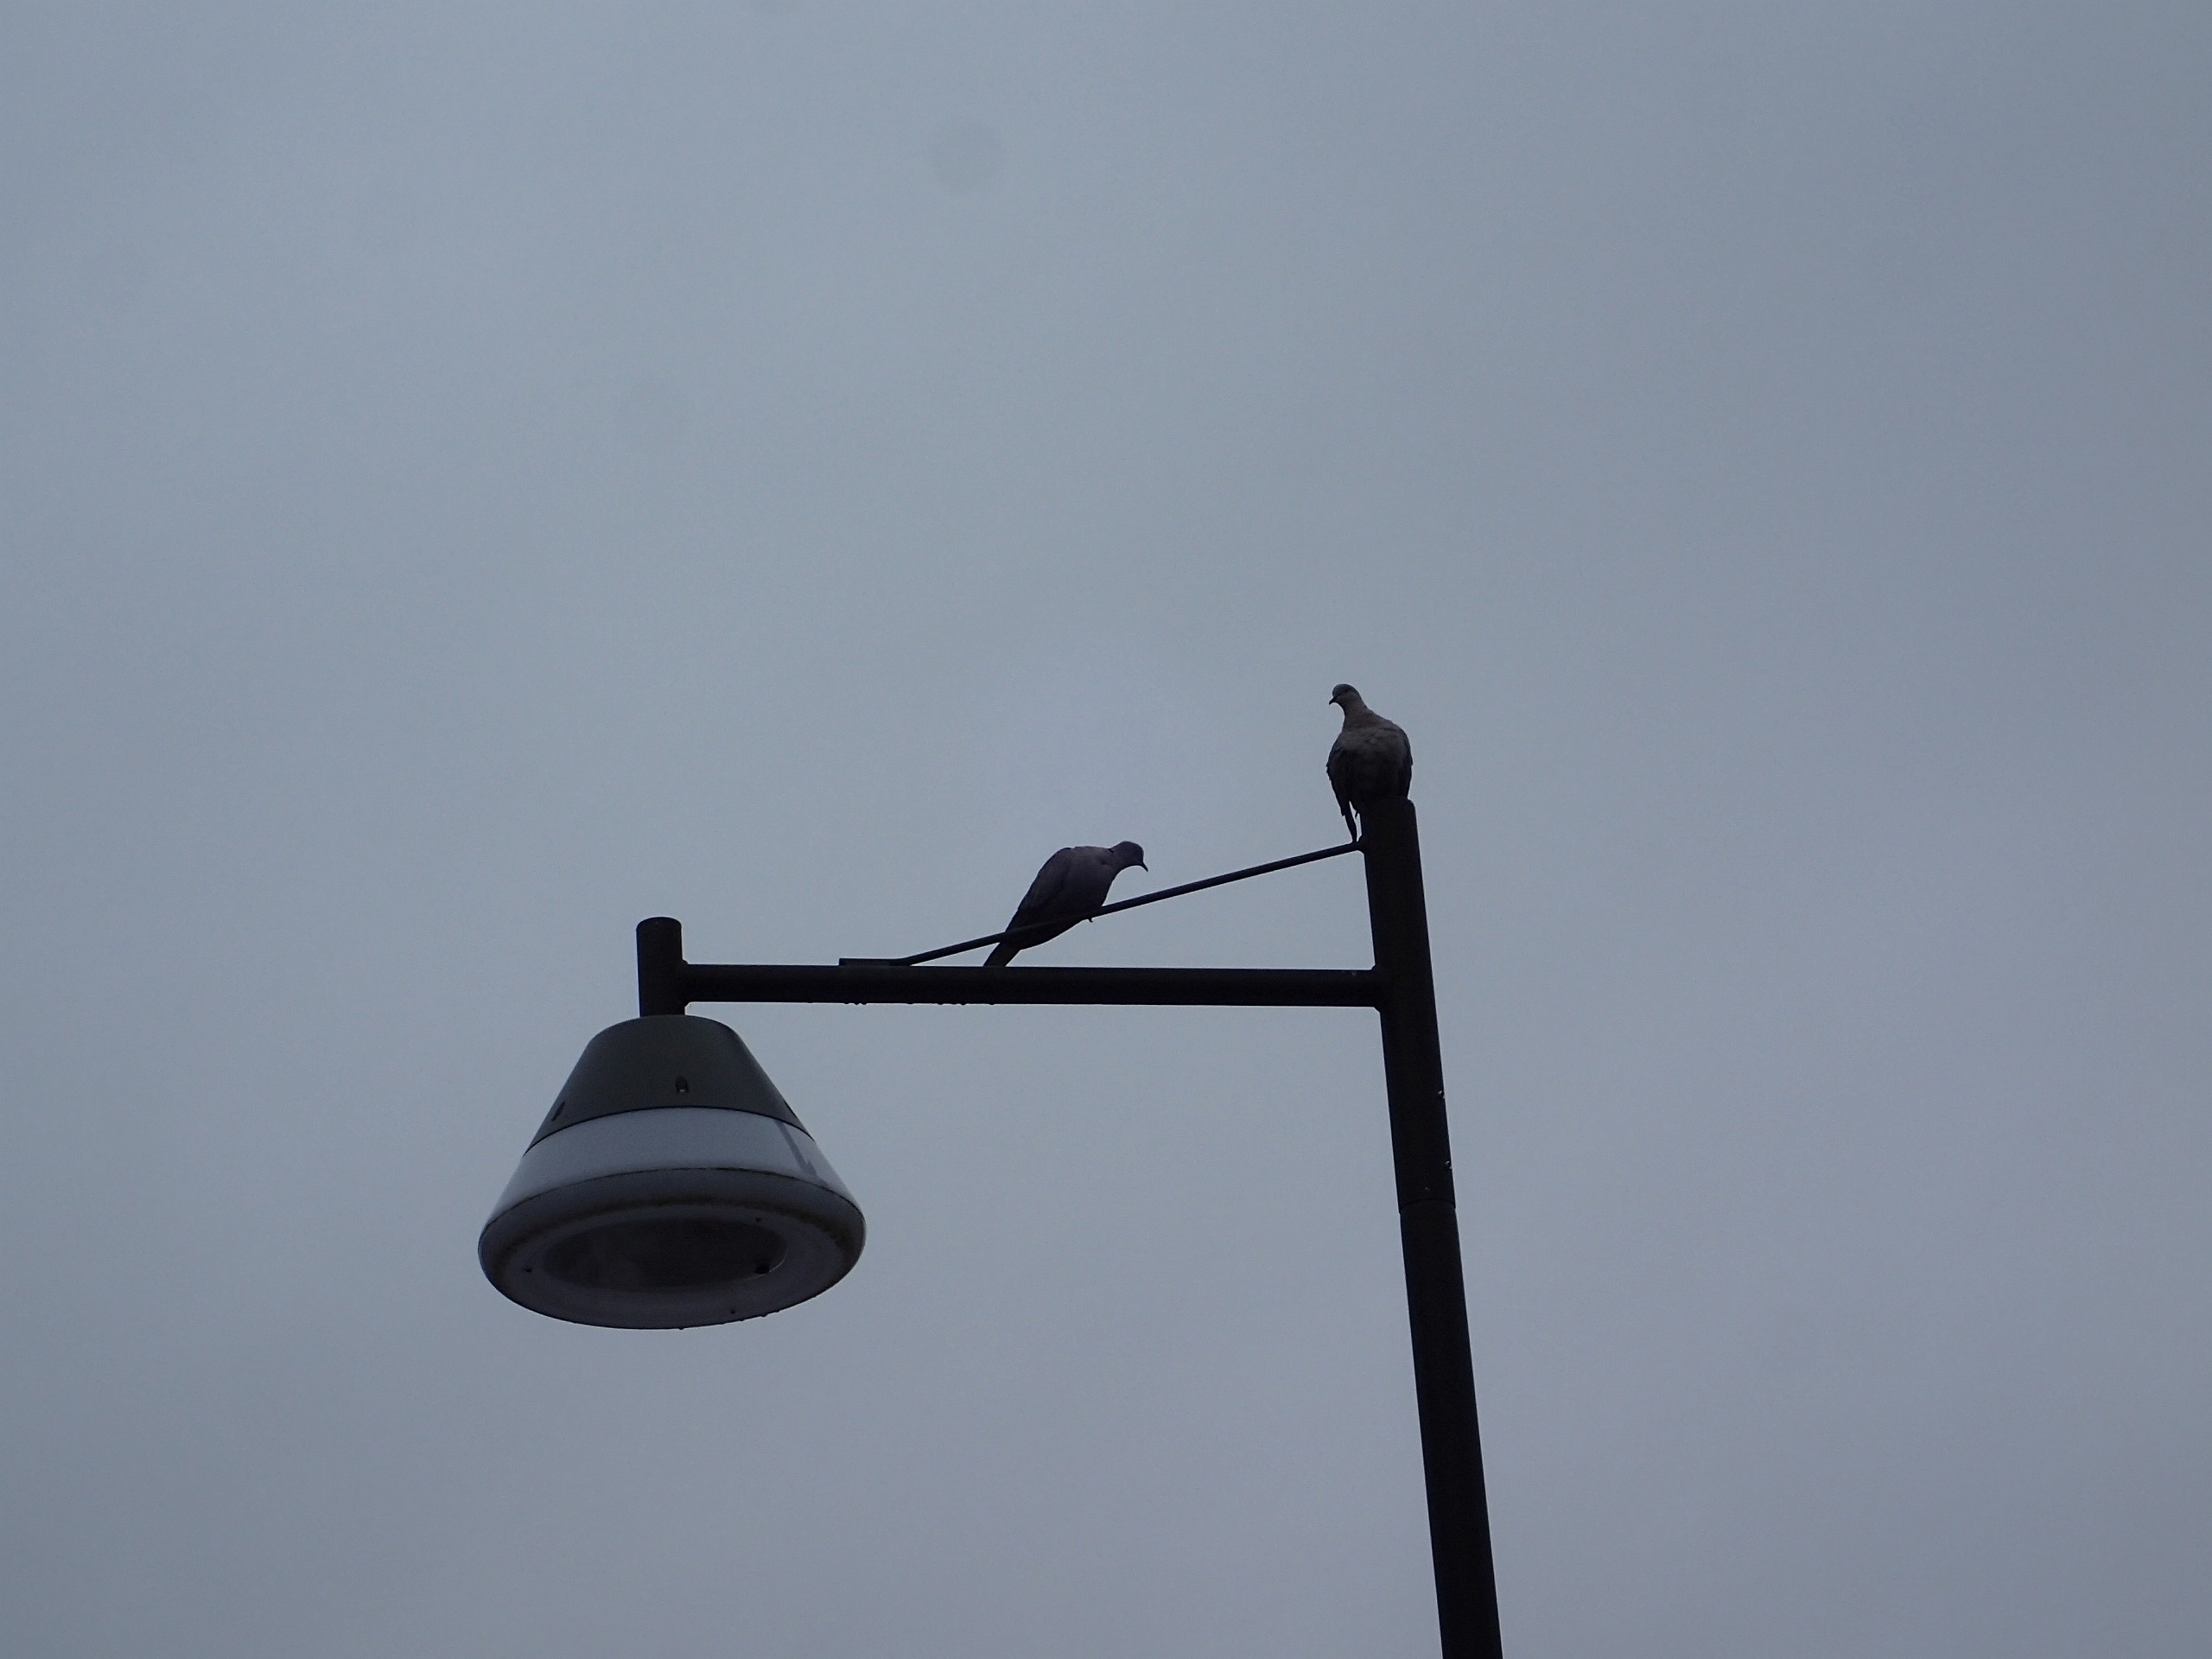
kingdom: Animalia
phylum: Chordata
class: Aves
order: Columbiformes
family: Columbidae
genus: Streptopelia
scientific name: Streptopelia decaocto
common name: Tyrkerdue
